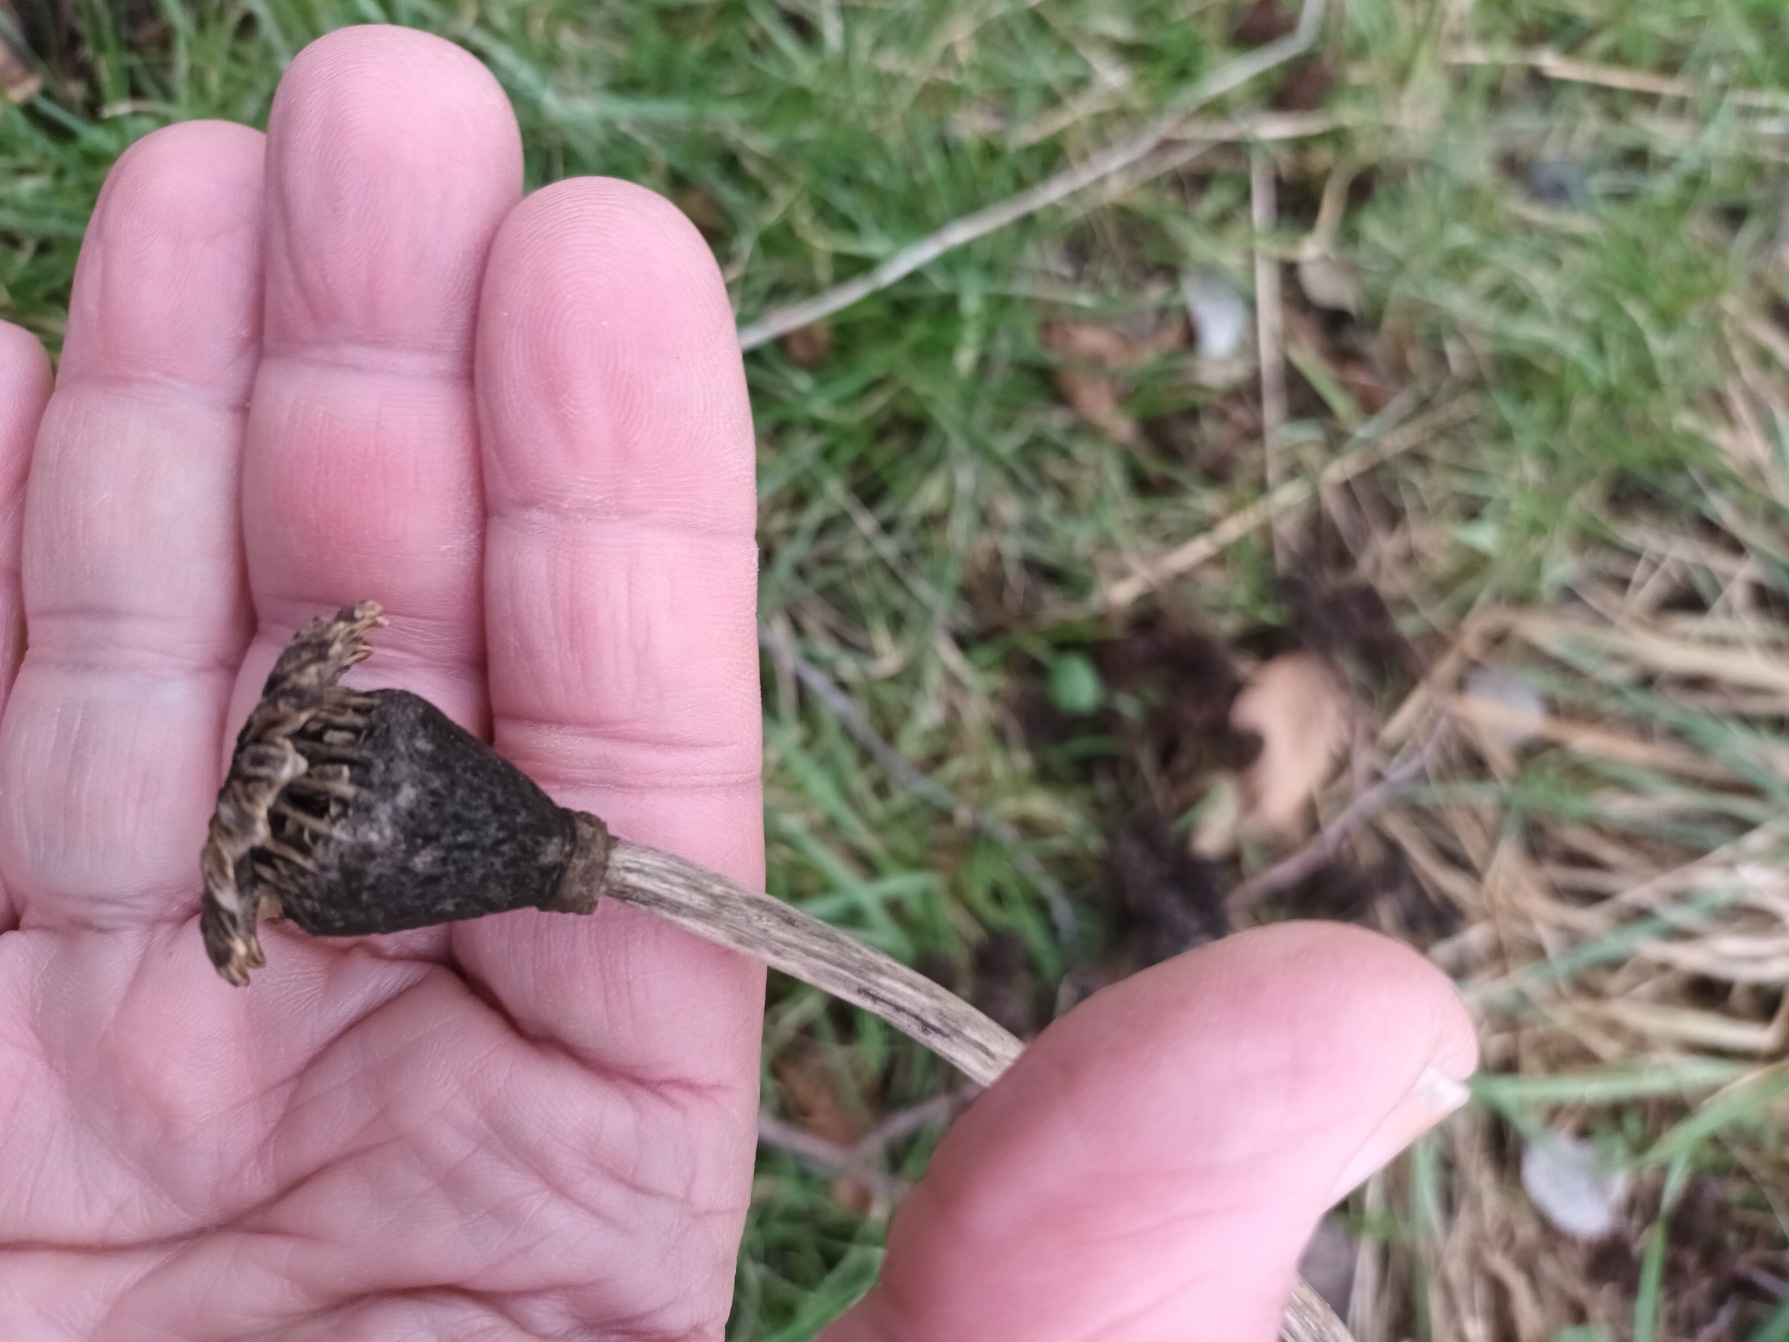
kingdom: Plantae
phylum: Tracheophyta
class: Magnoliopsida
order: Ranunculales
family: Papaveraceae
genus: Papaver
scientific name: Papaver setiferum
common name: Kæmpe-valmue
